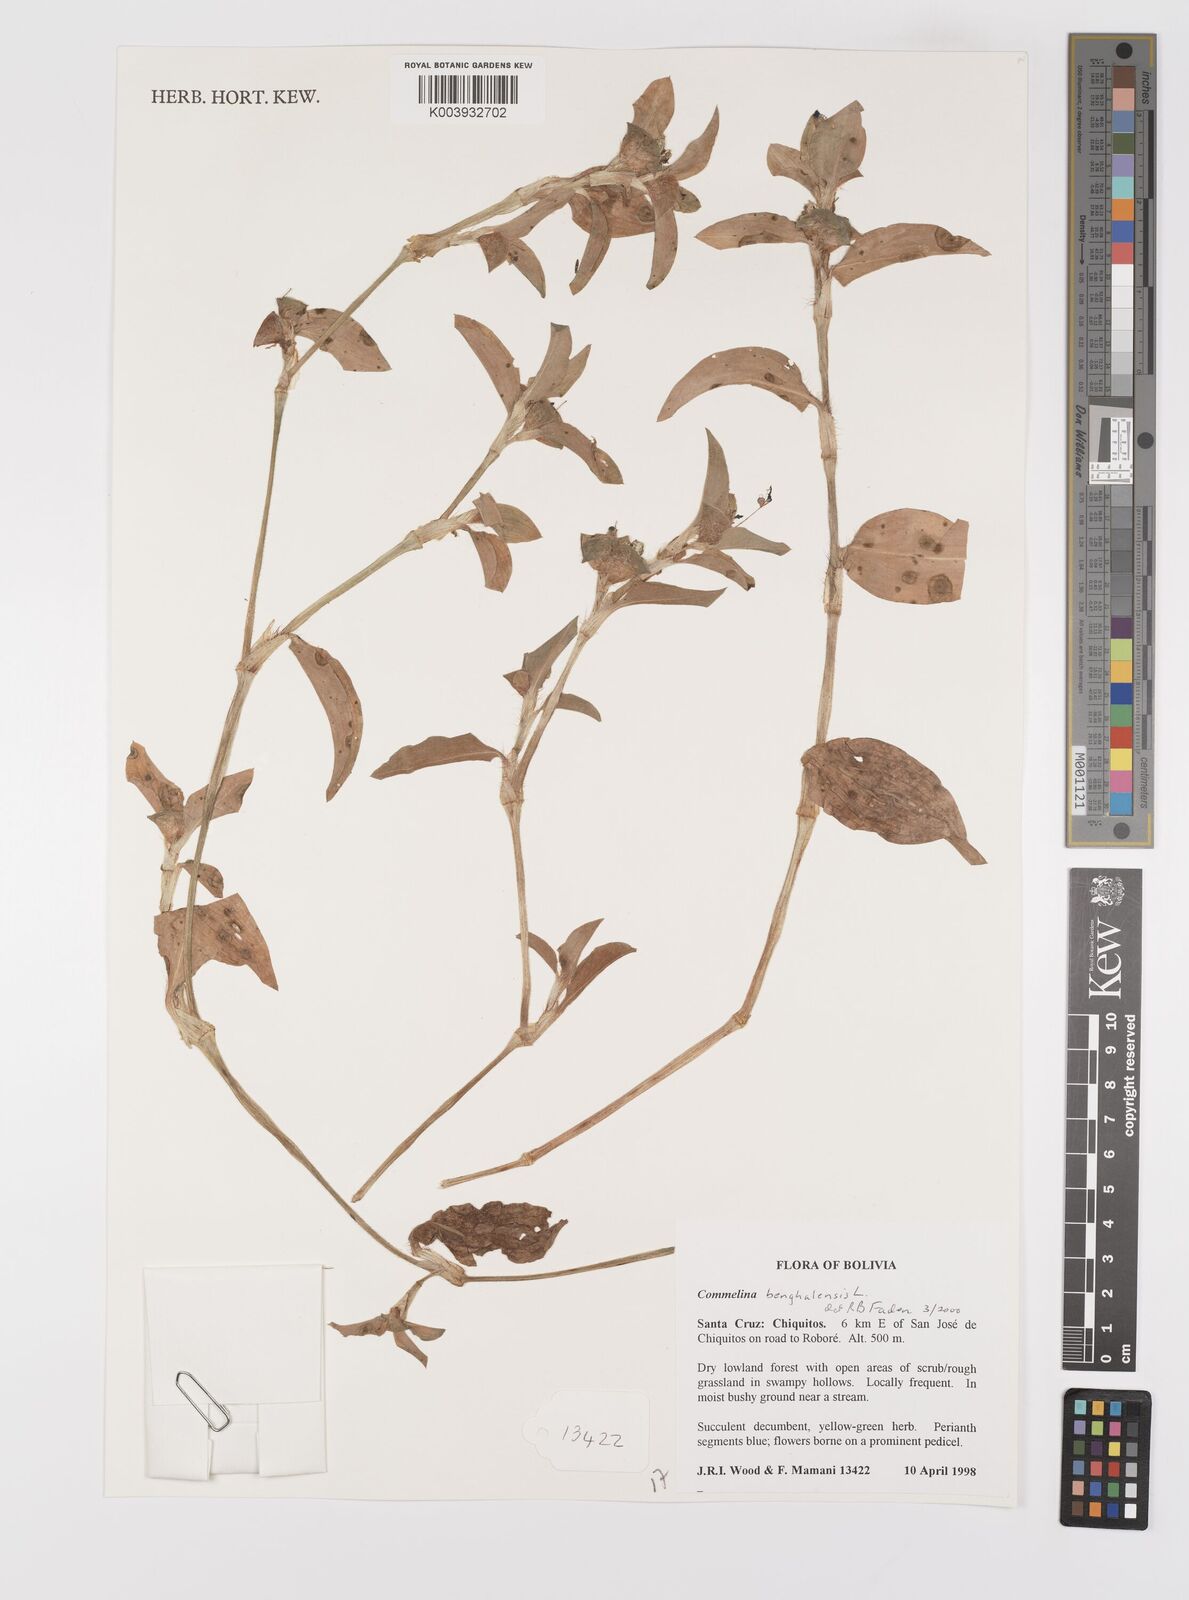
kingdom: Plantae
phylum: Tracheophyta
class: Liliopsida
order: Commelinales
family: Commelinaceae
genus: Commelina
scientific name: Commelina benghalensis
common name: Jio
